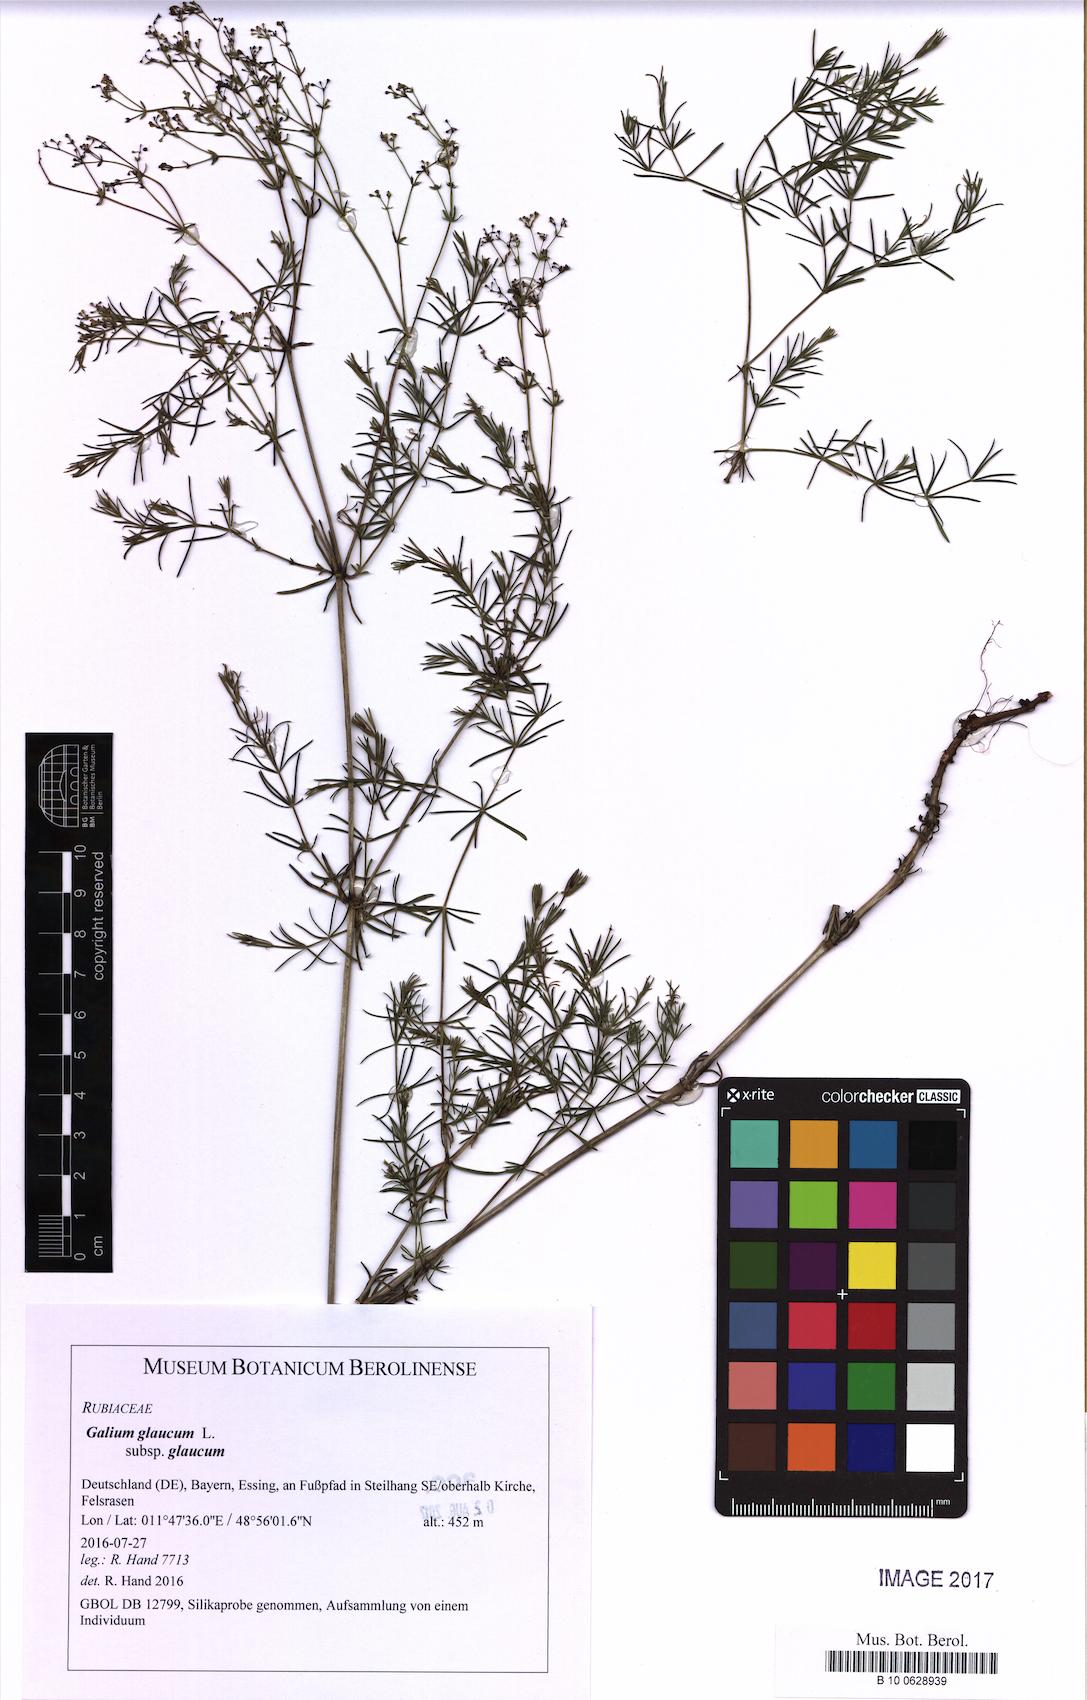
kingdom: Plantae
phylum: Tracheophyta
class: Magnoliopsida
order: Gentianales
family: Rubiaceae
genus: Galium
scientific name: Galium glaucum
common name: Waxy bedstraw
